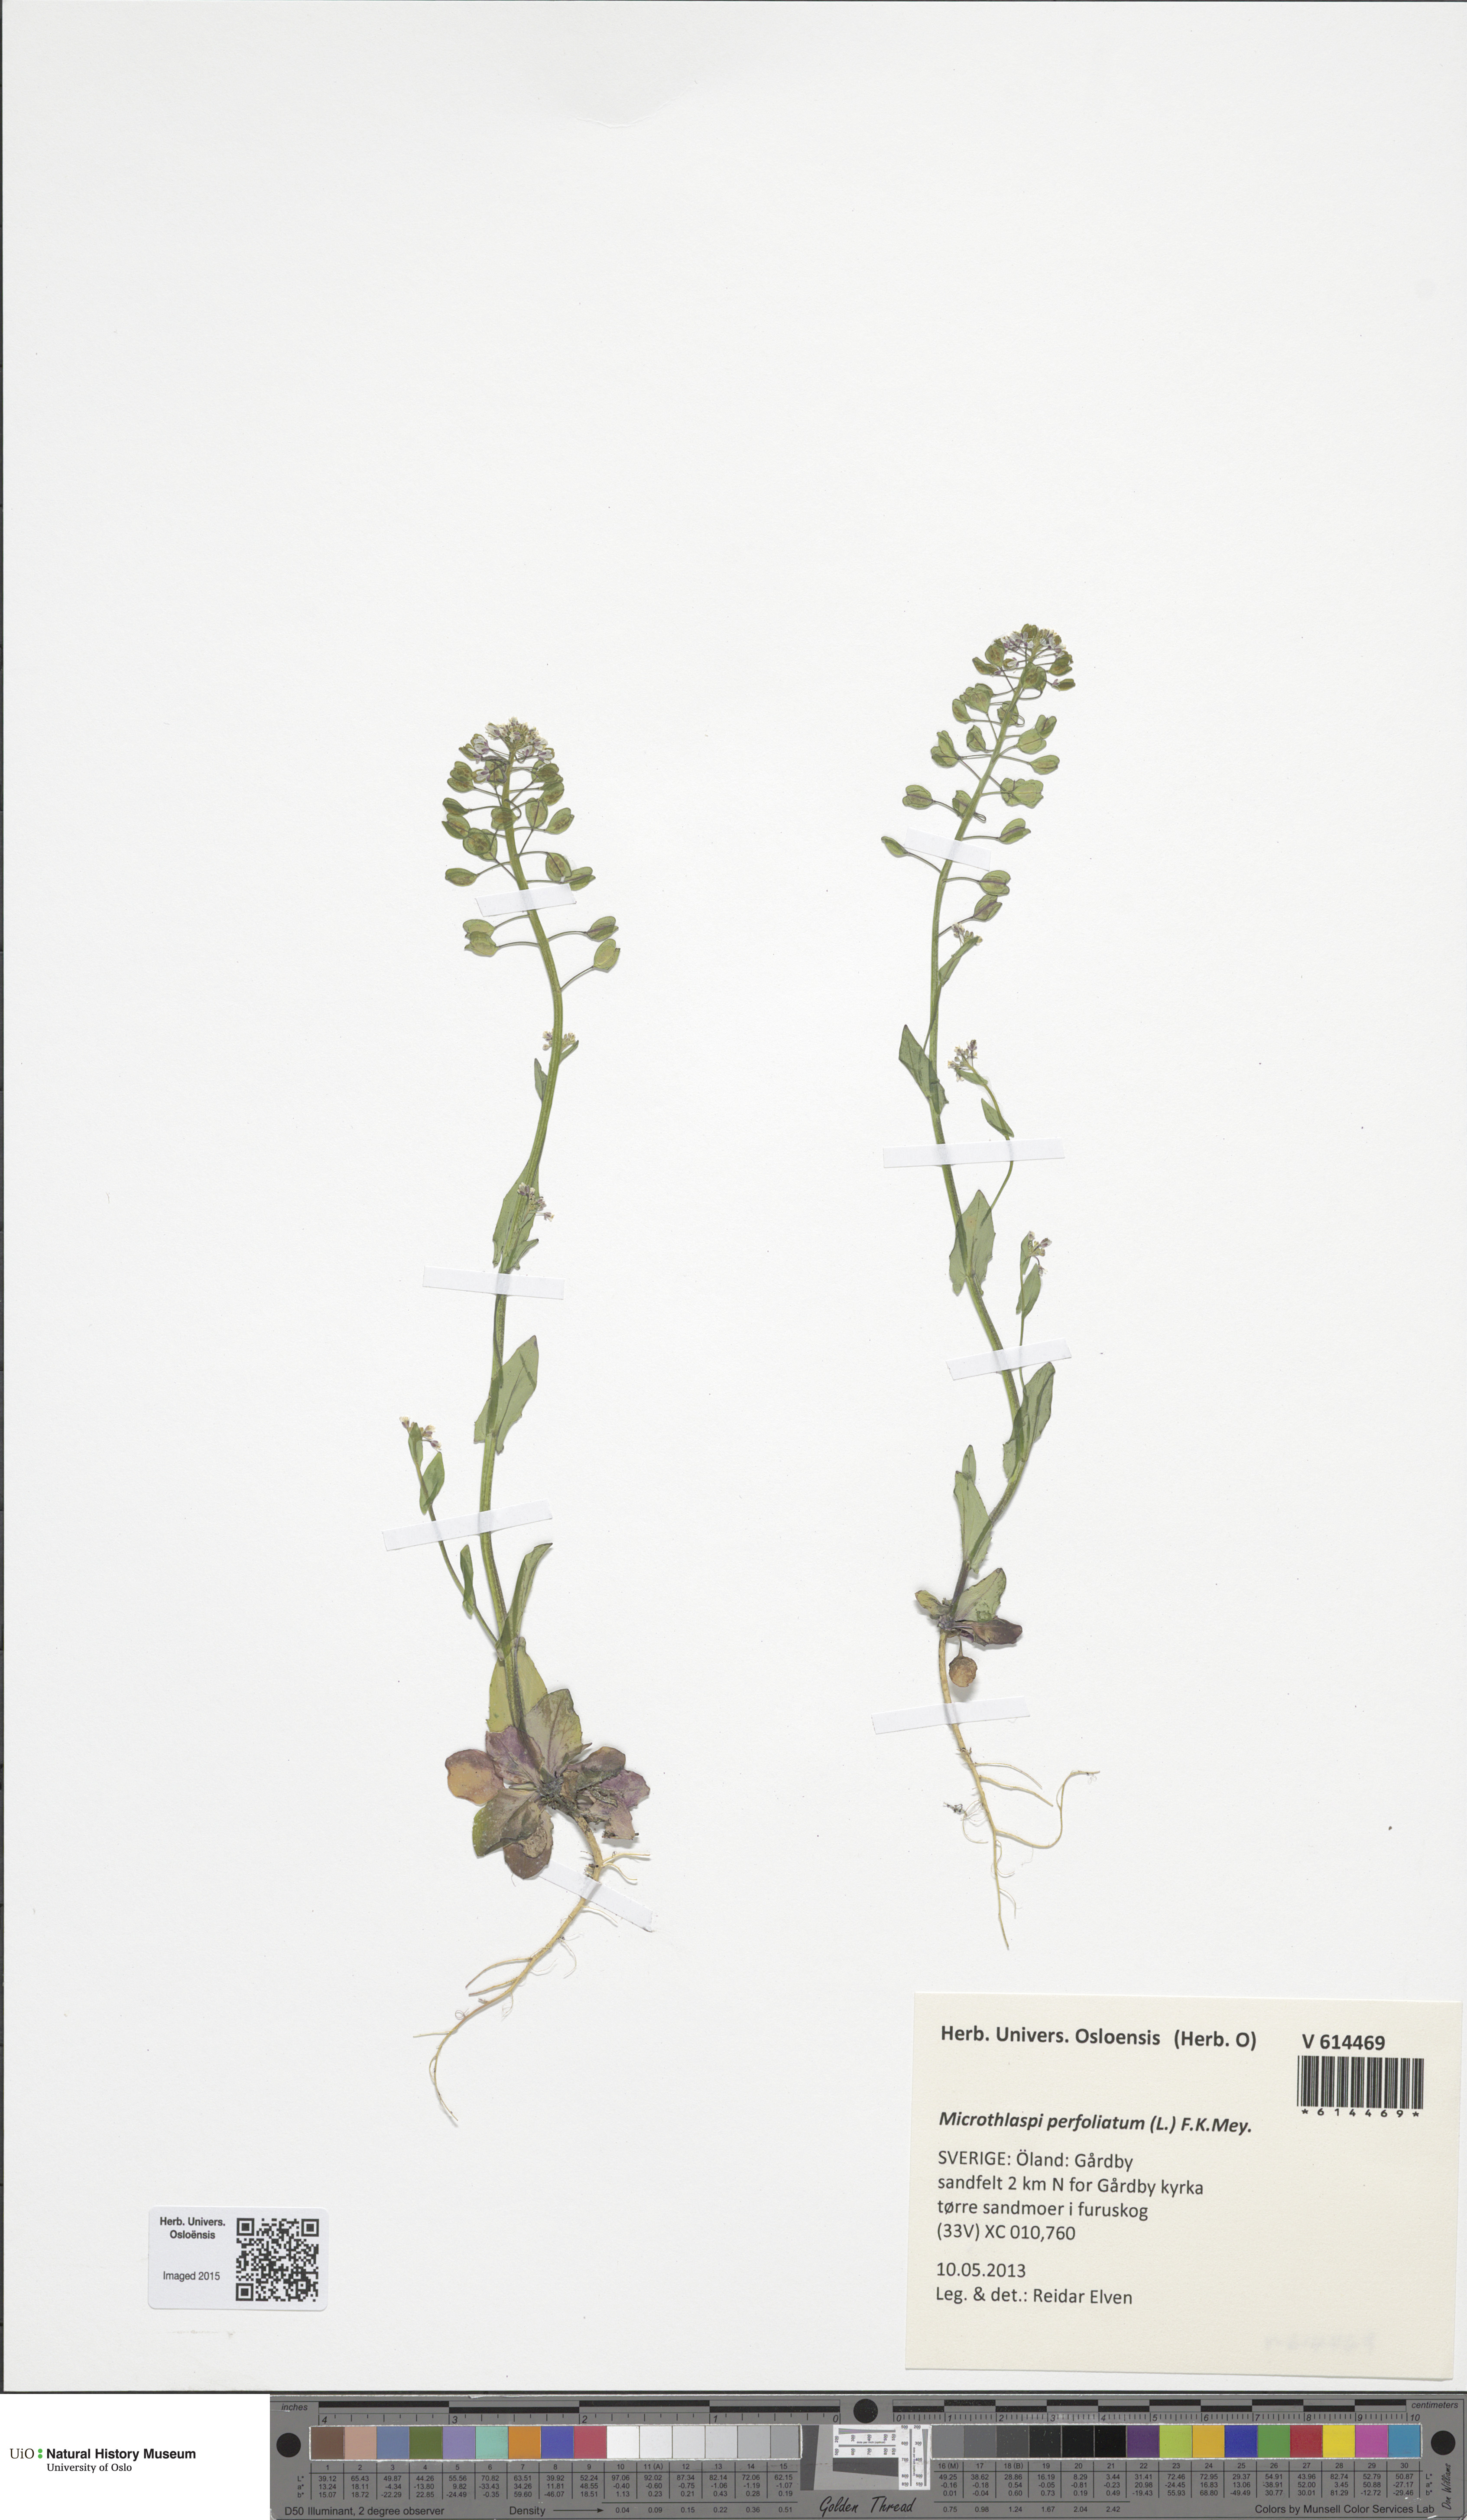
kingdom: Plantae
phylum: Tracheophyta
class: Magnoliopsida
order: Brassicales
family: Brassicaceae
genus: Noccaea
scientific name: Noccaea perfoliata
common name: Perfoliate pennycress
